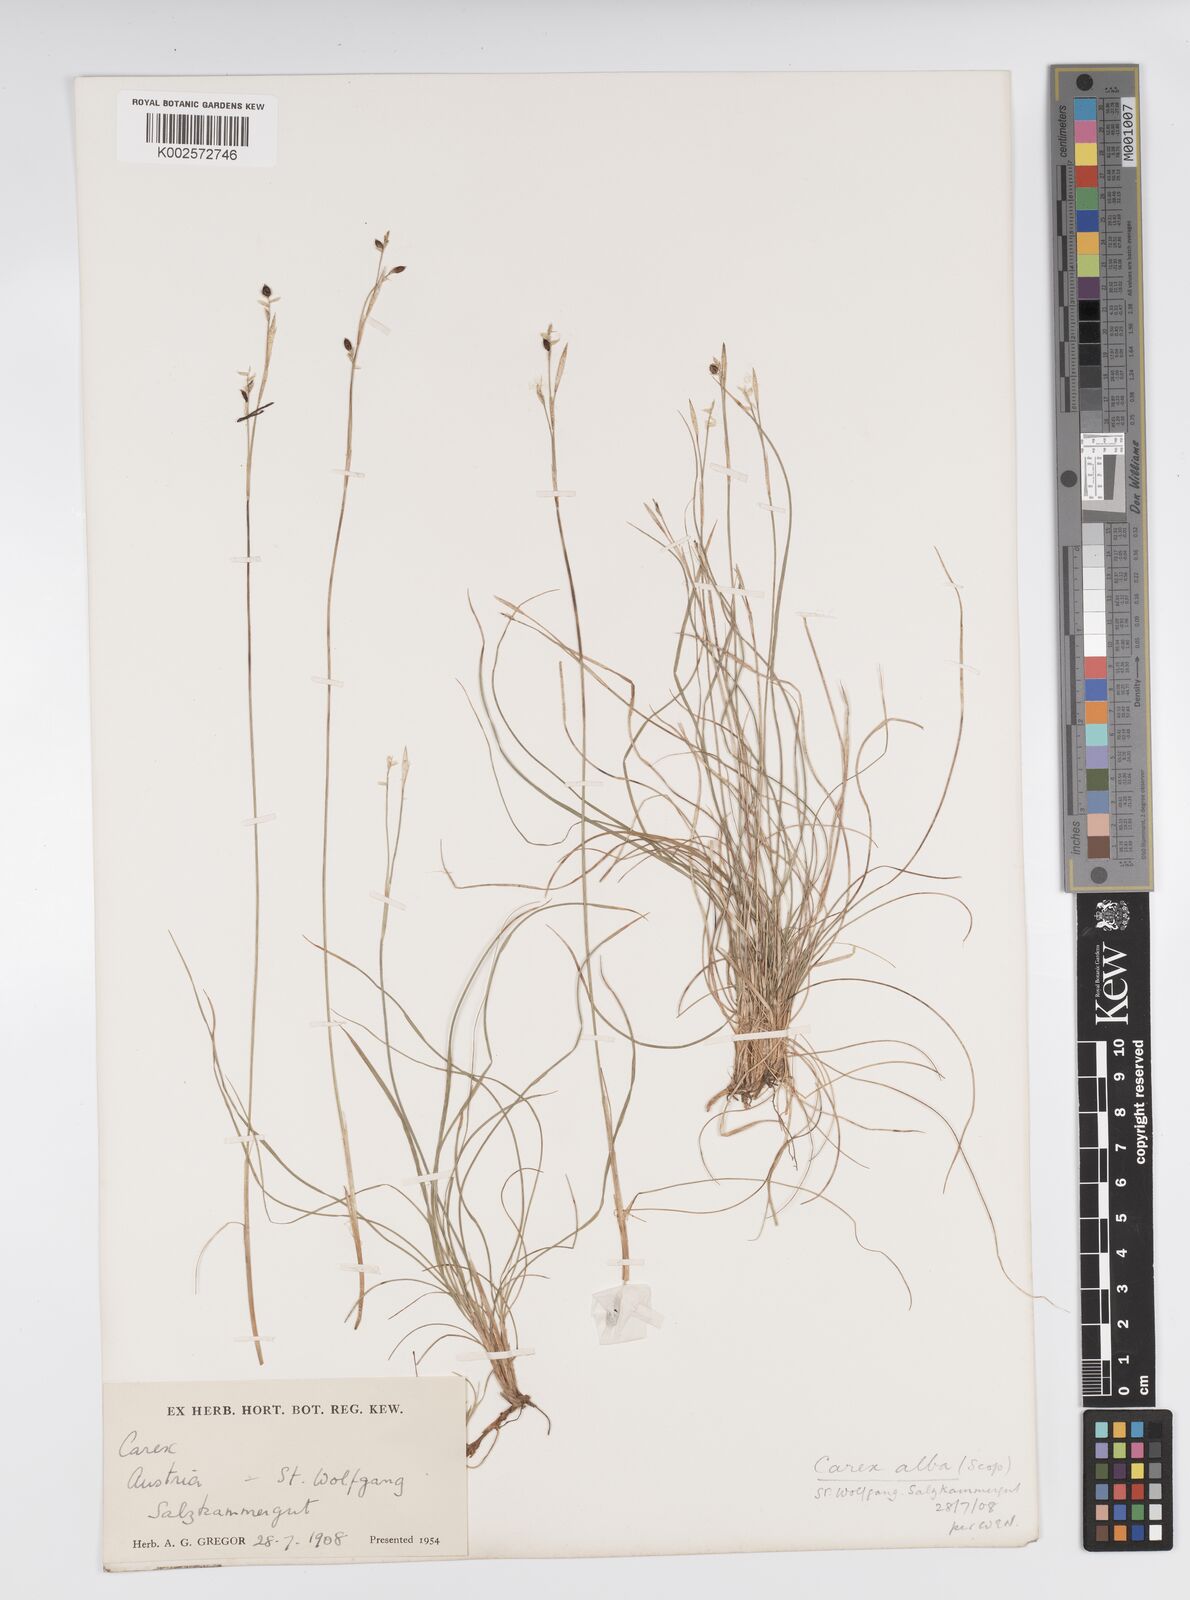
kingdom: Plantae
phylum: Tracheophyta
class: Liliopsida
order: Poales
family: Cyperaceae
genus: Carex
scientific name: Carex alba
